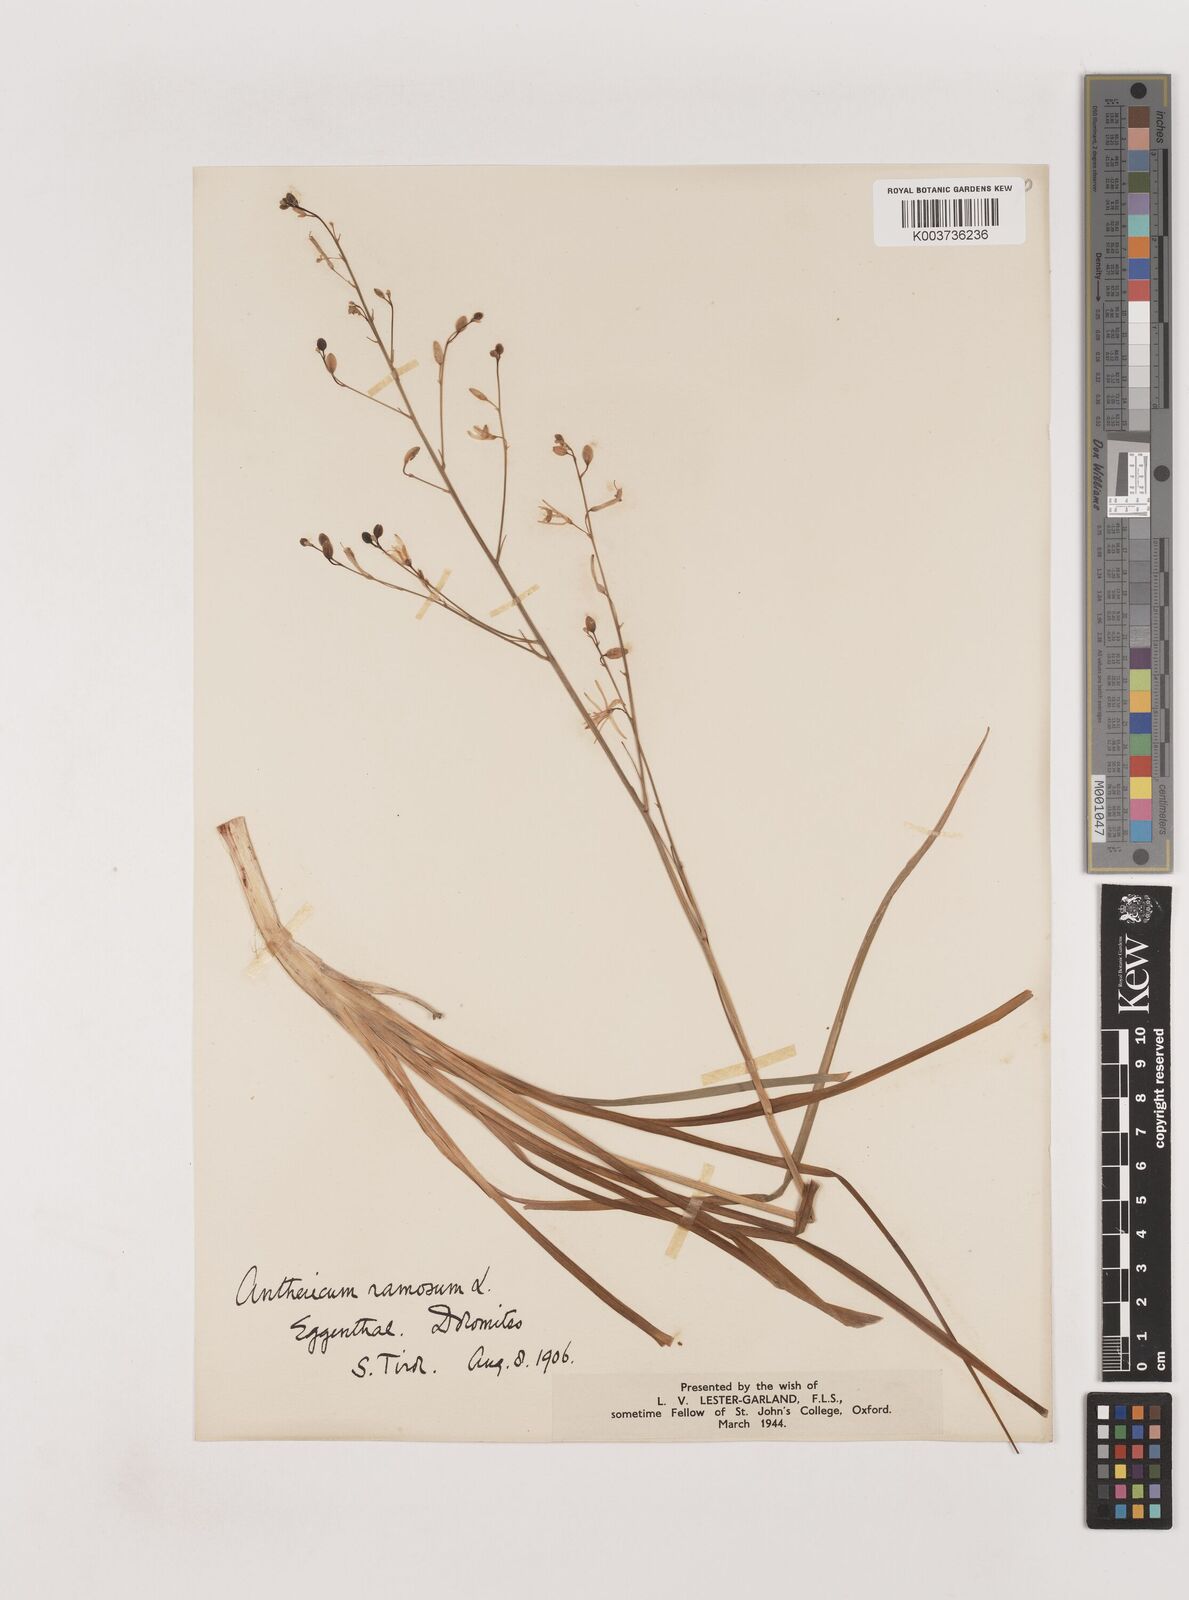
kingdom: Plantae
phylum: Tracheophyta
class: Liliopsida
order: Asparagales
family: Asparagaceae
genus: Anthericum
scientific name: Anthericum
